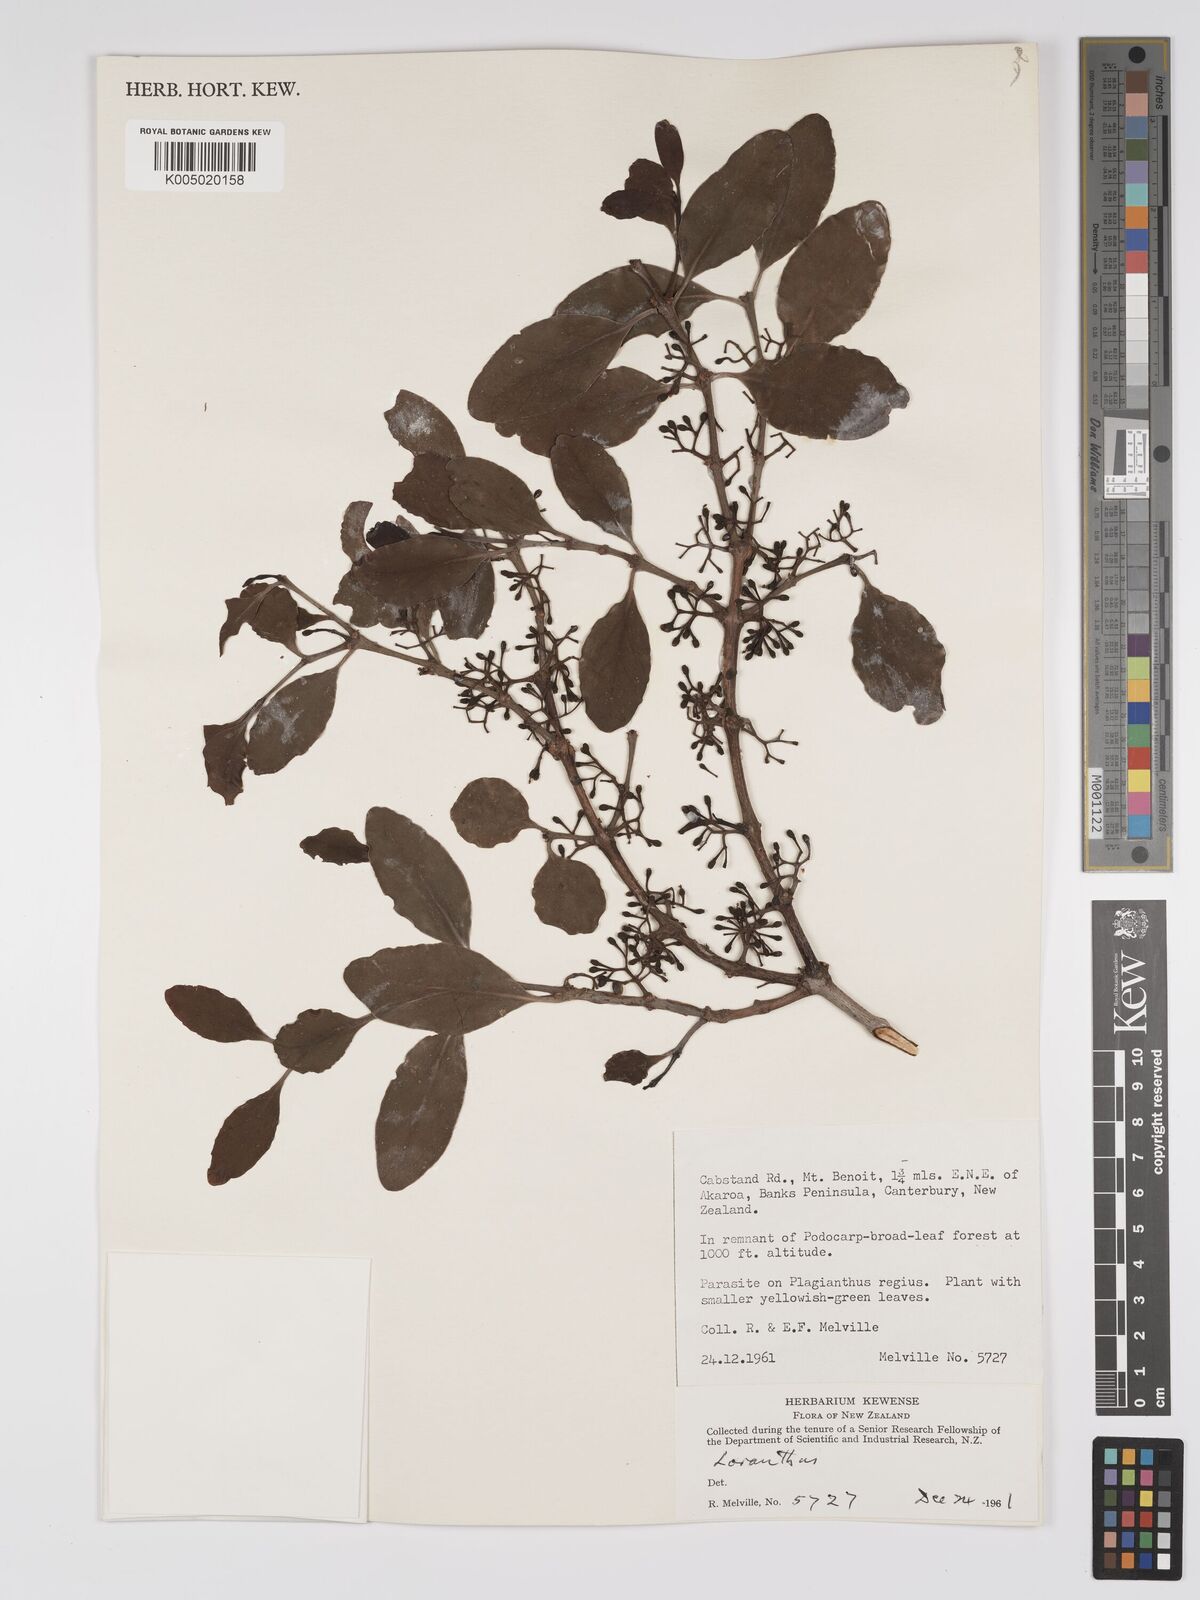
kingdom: Plantae
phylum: Tracheophyta
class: Magnoliopsida
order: Santalales
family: Loranthaceae
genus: Ileostylus
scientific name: Ileostylus
